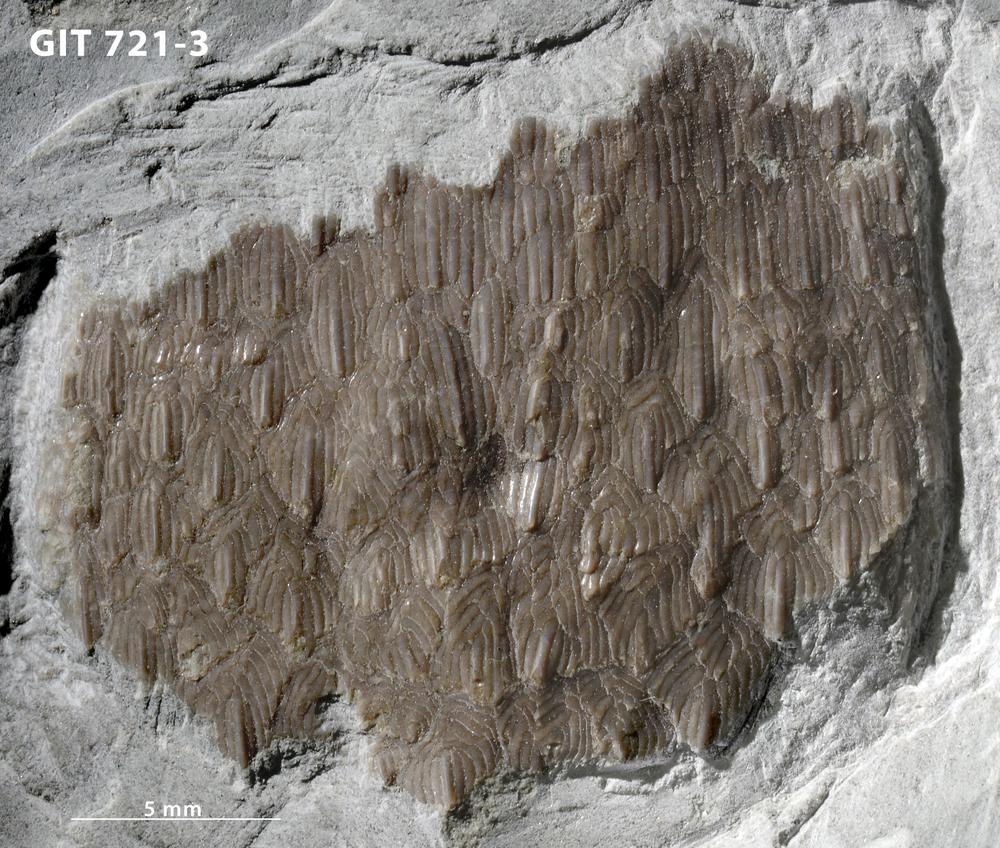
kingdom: Animalia
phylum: Chordata
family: Tolypelepididae
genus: Tolypelepis
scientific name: Tolypelepis
